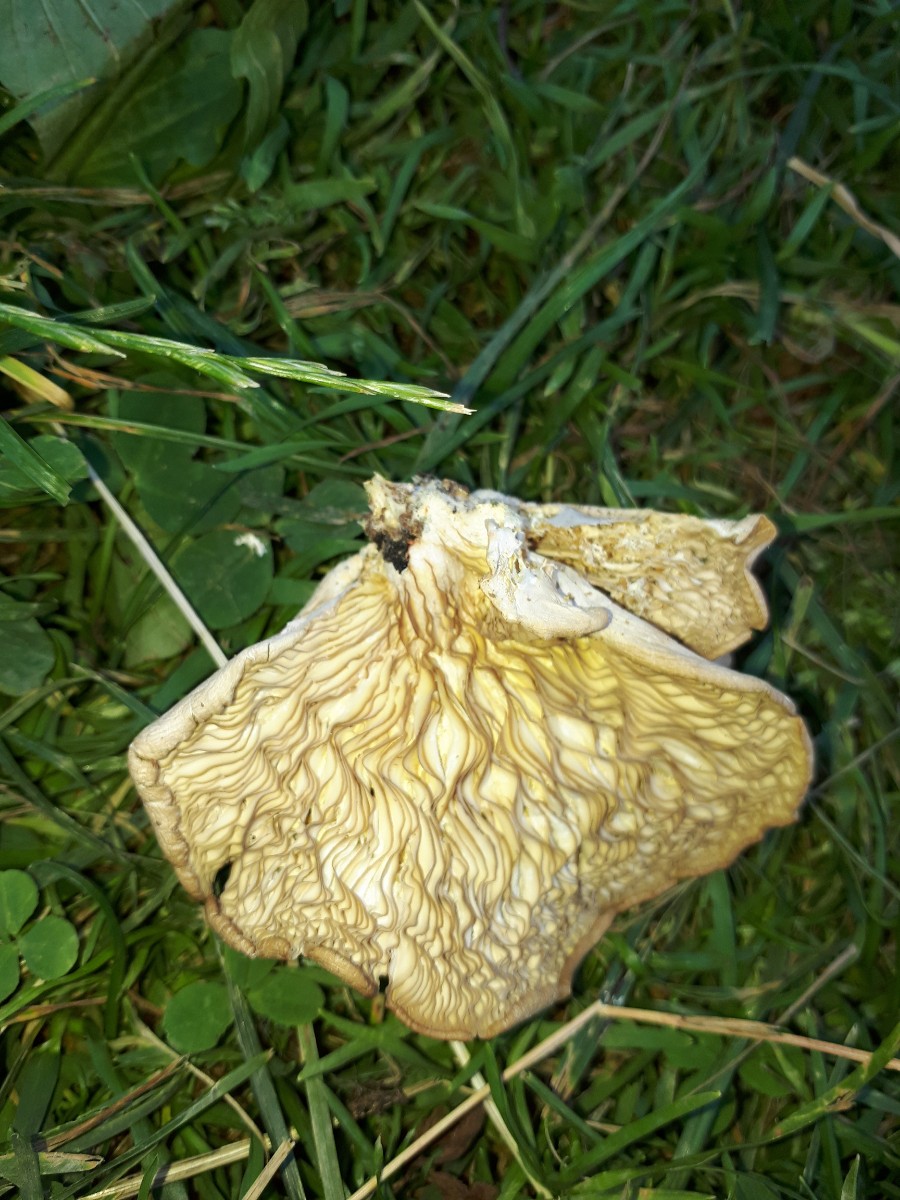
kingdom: Fungi
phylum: Basidiomycota
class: Agaricomycetes
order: Agaricales
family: Pleurotaceae
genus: Pleurotus
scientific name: Pleurotus pulmonarius
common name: sommer-østershat
